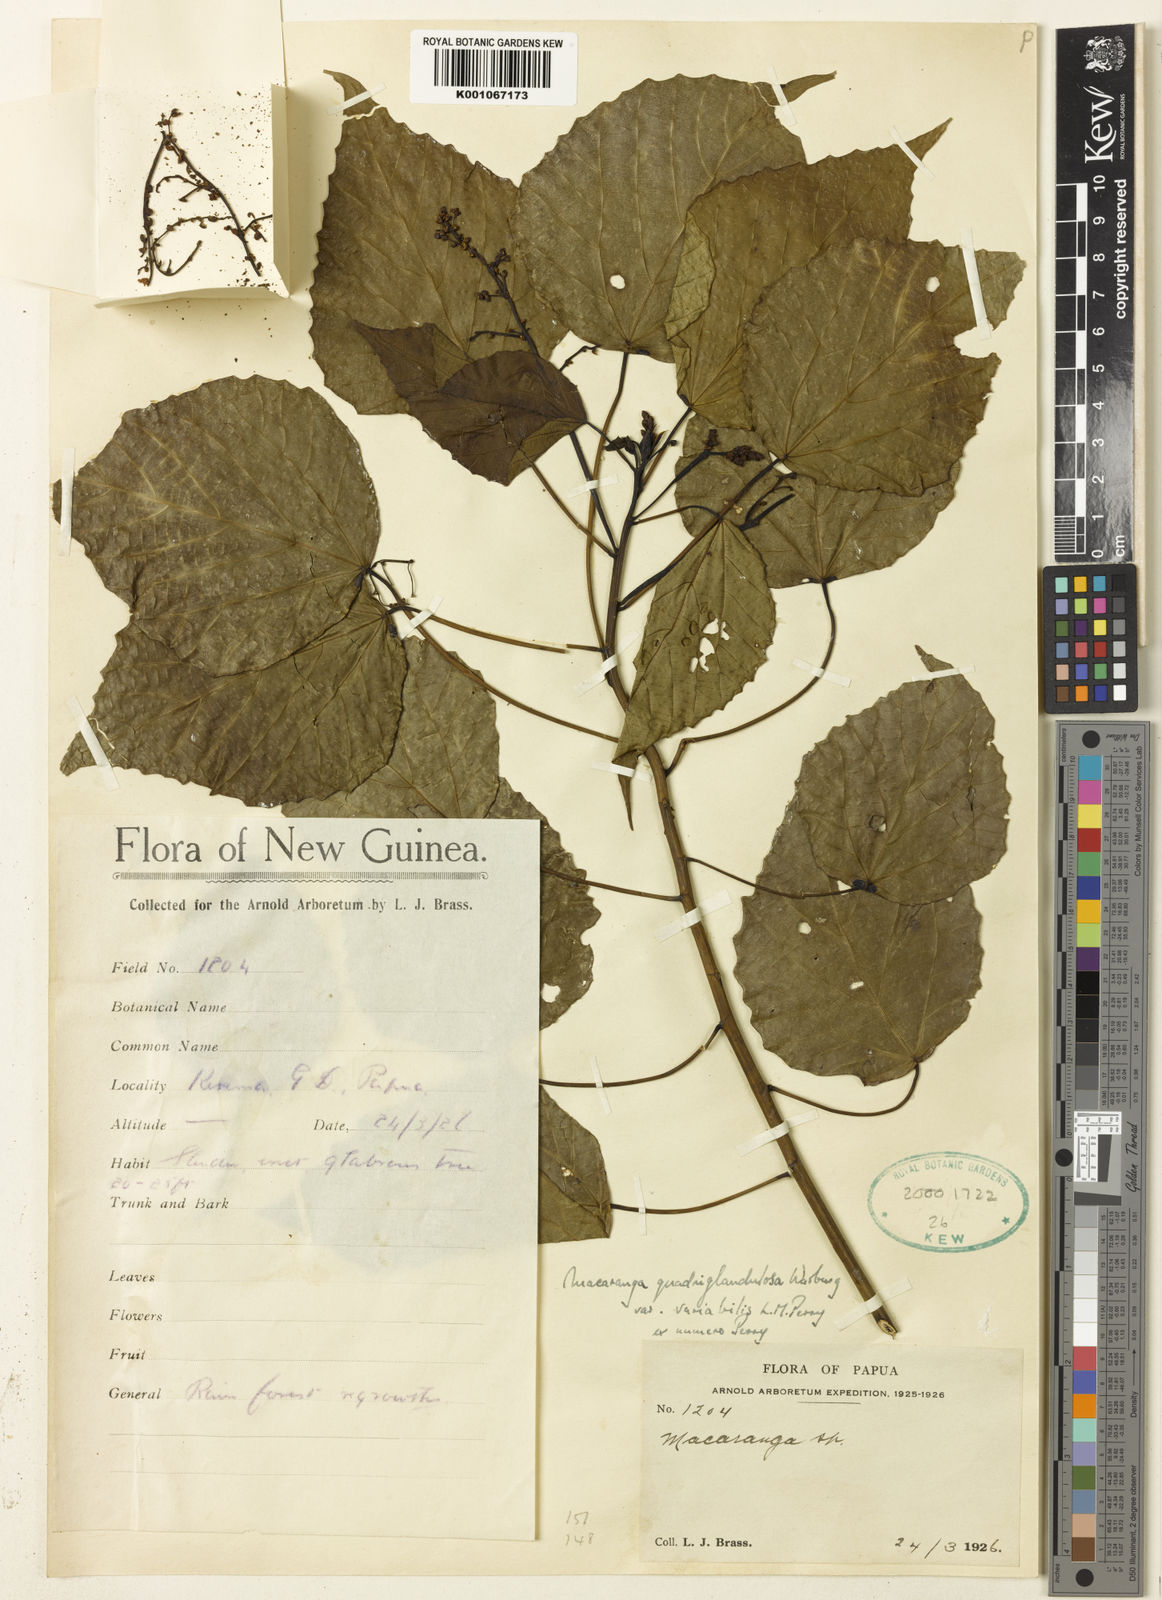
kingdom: Plantae
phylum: Tracheophyta
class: Magnoliopsida
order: Malpighiales
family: Euphorbiaceae
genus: Macaranga
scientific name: Macaranga quadriglandulosa
